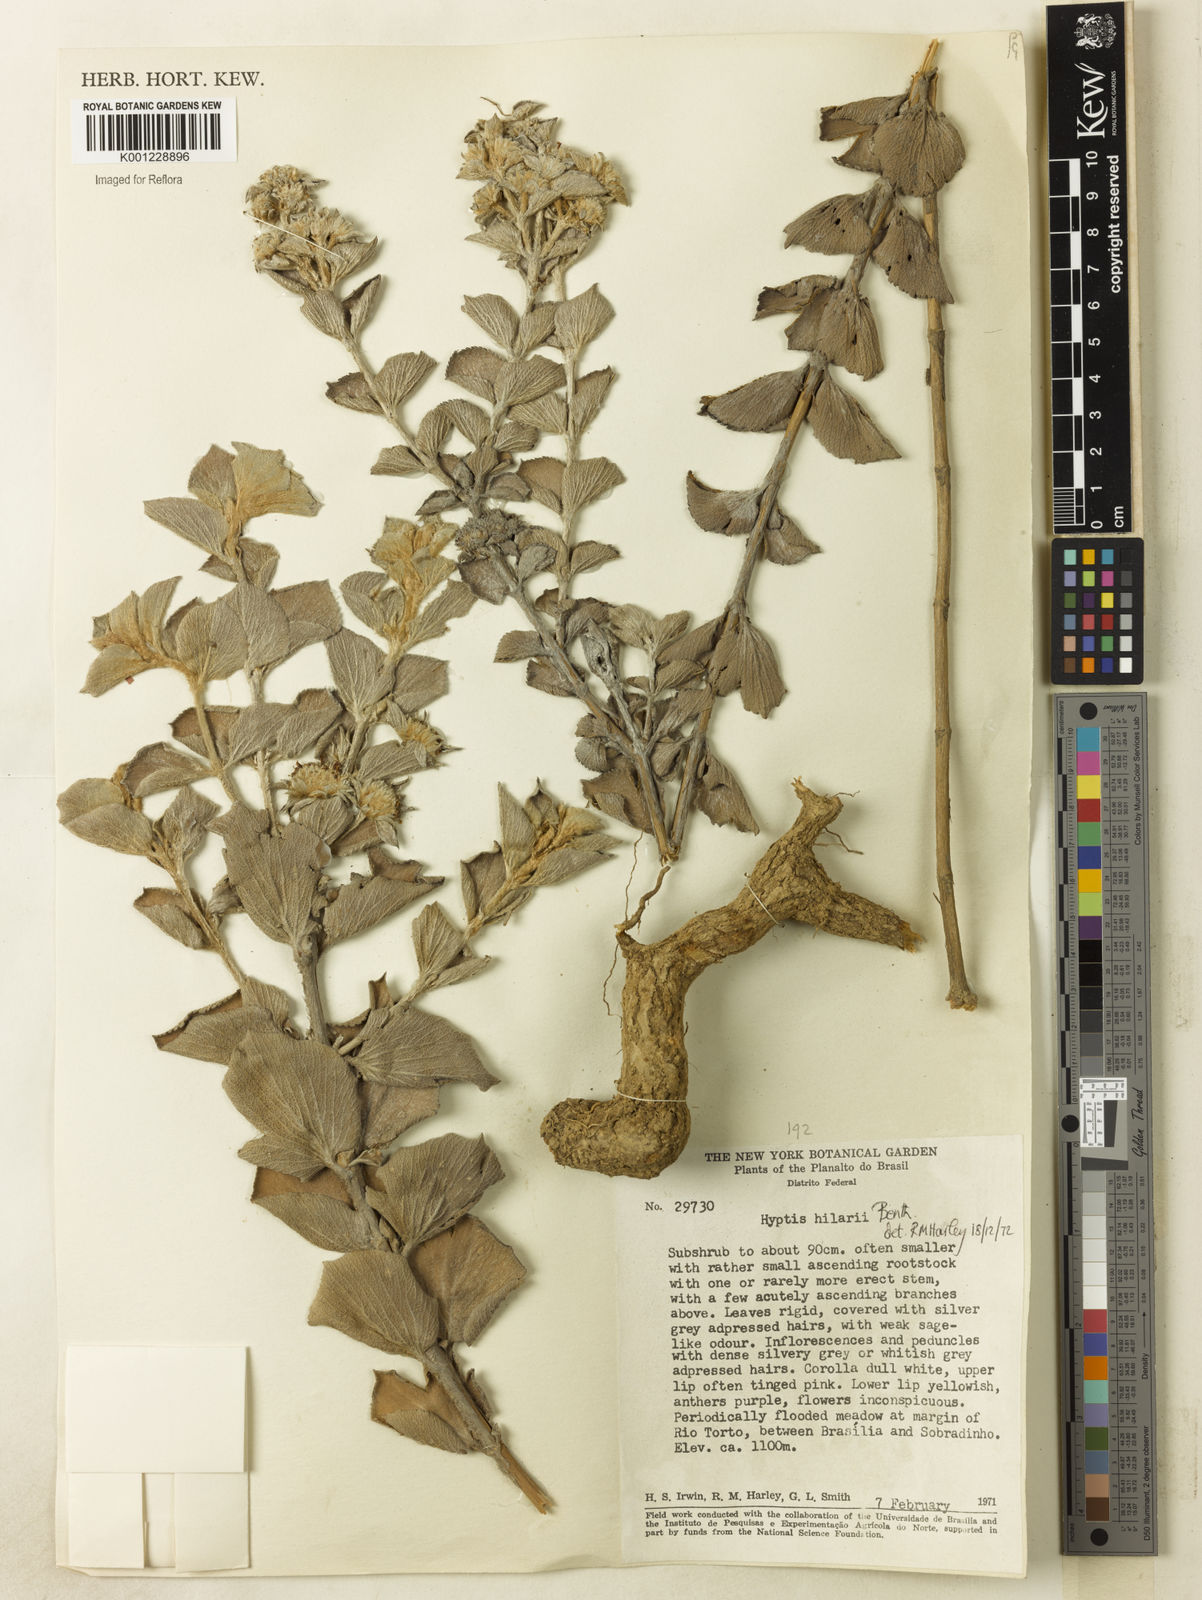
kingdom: Plantae
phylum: Tracheophyta
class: Magnoliopsida
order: Lamiales
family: Lamiaceae
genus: Hyptis
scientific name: Hyptis hilarii
